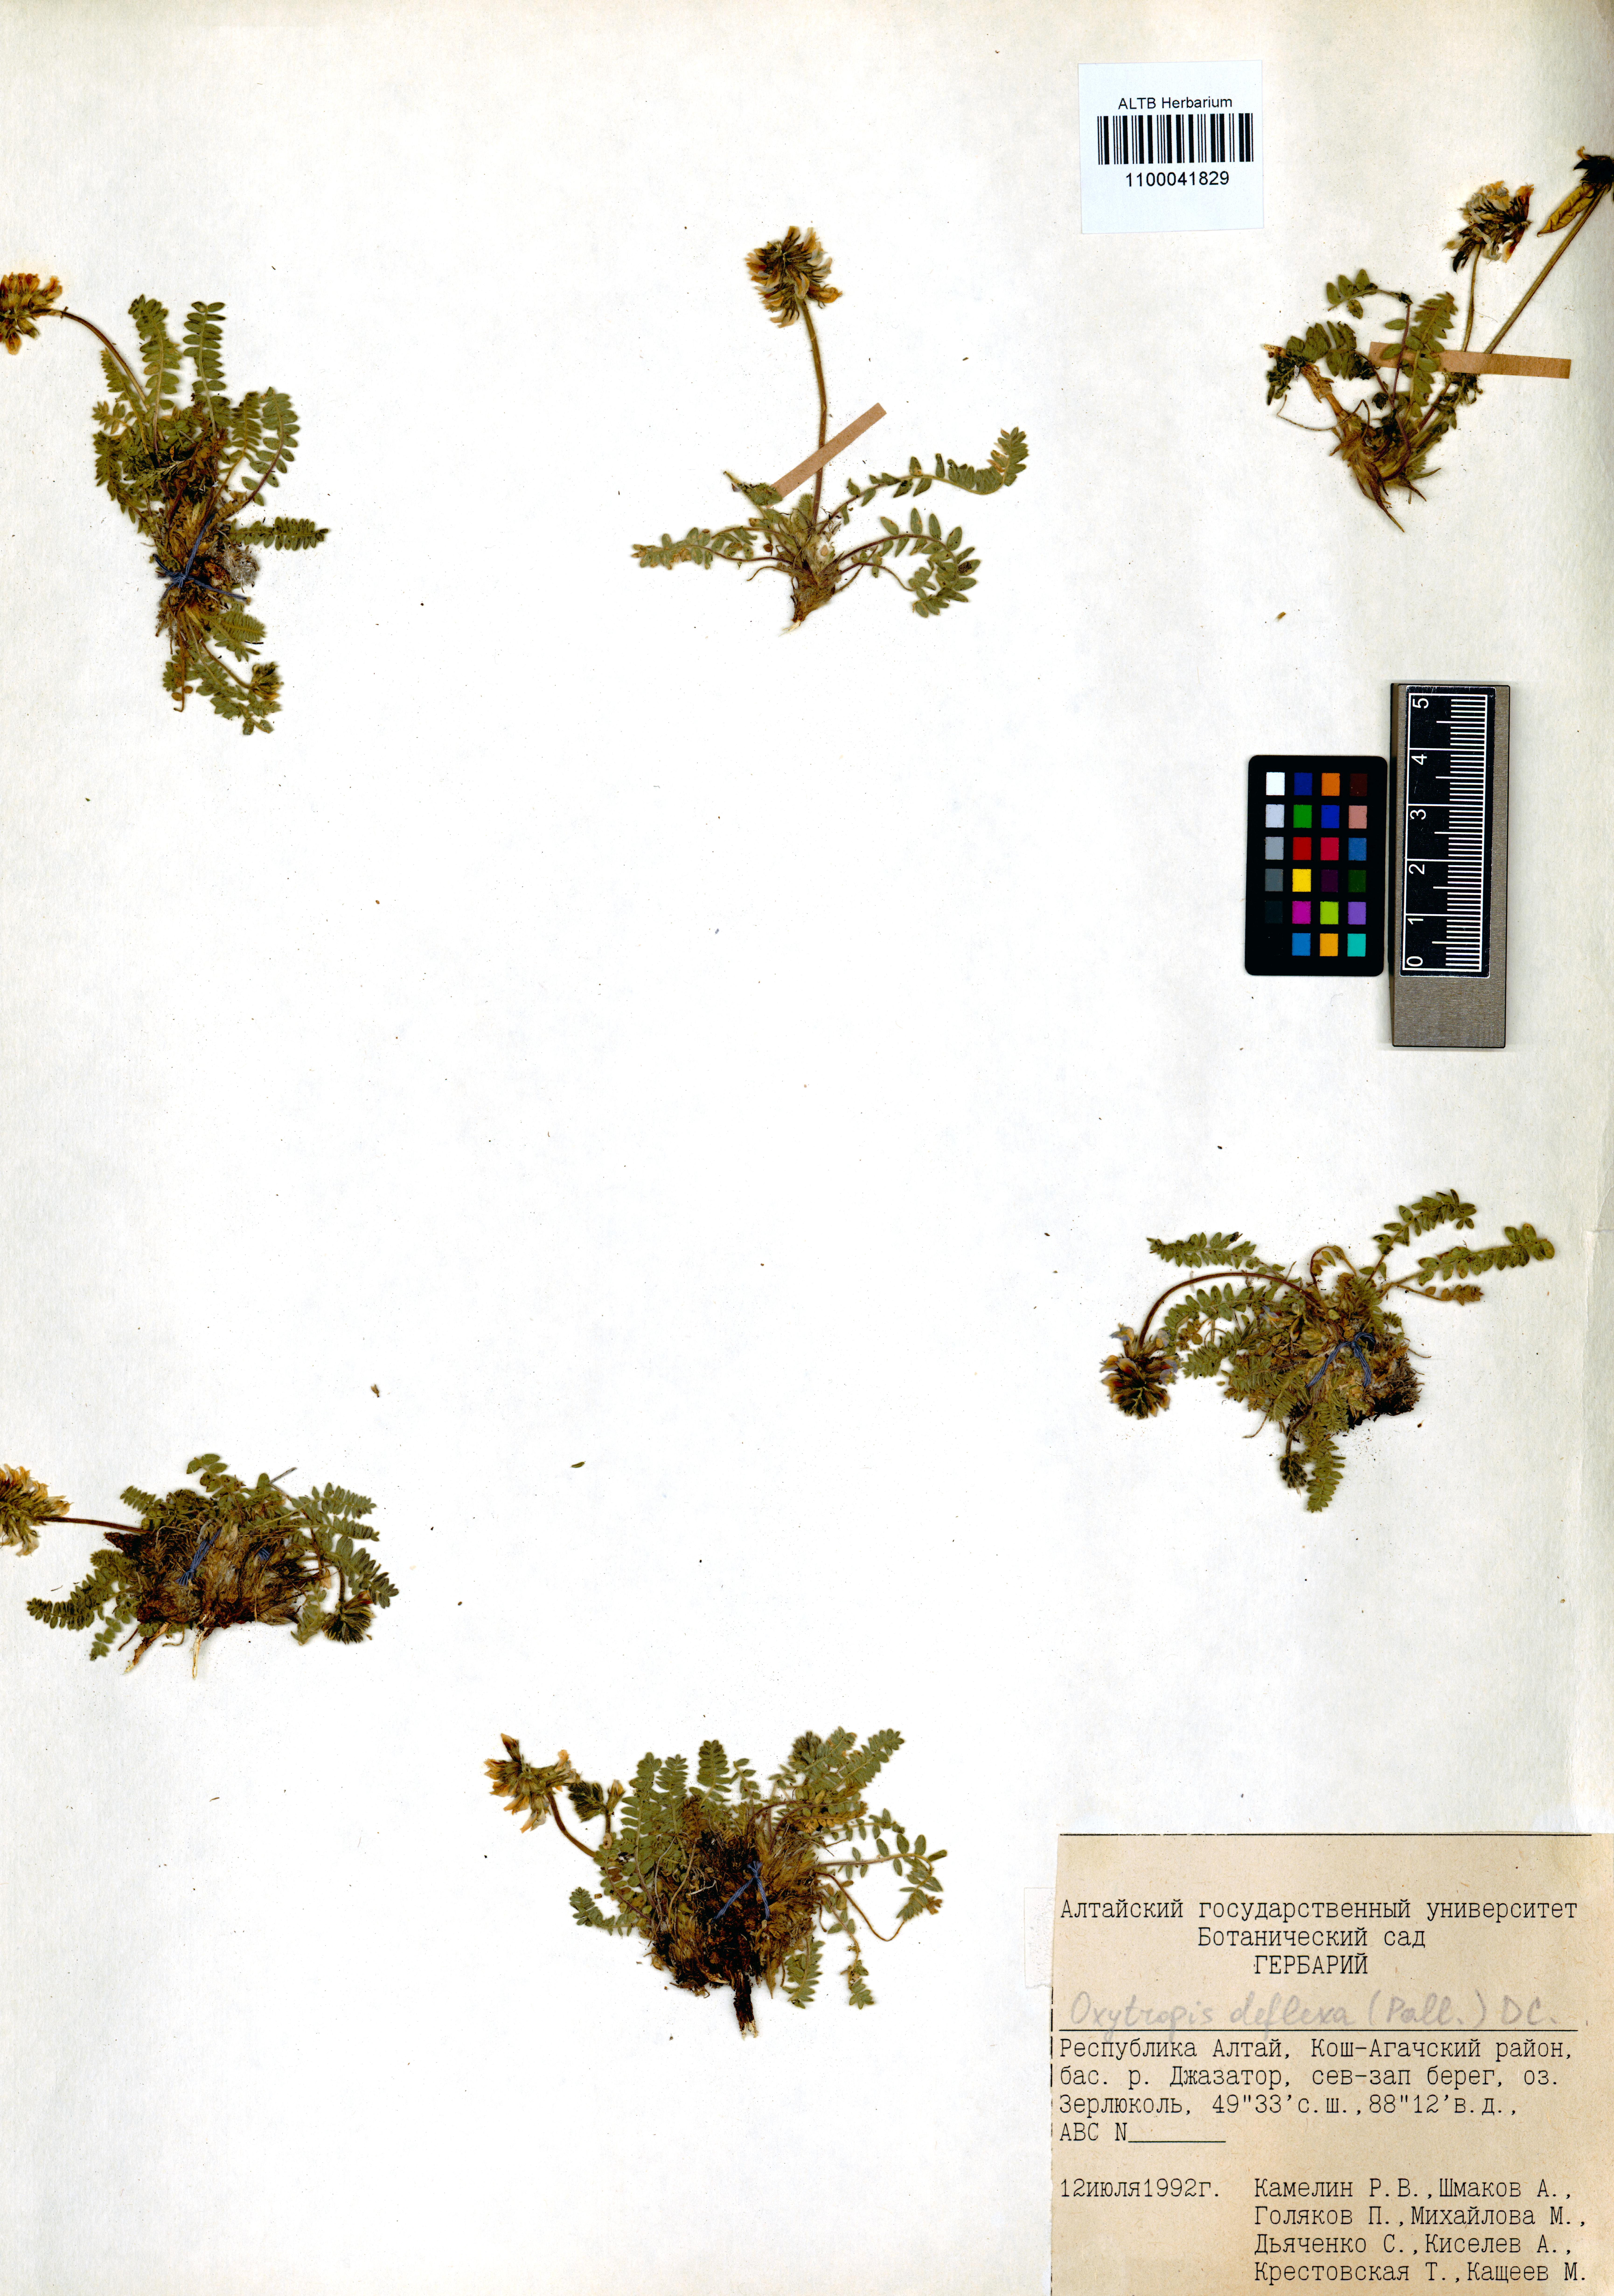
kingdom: Plantae
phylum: Tracheophyta
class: Magnoliopsida
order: Fabales
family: Fabaceae
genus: Oxytropis
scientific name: Oxytropis deflexa
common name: Stemmed oxytrope
